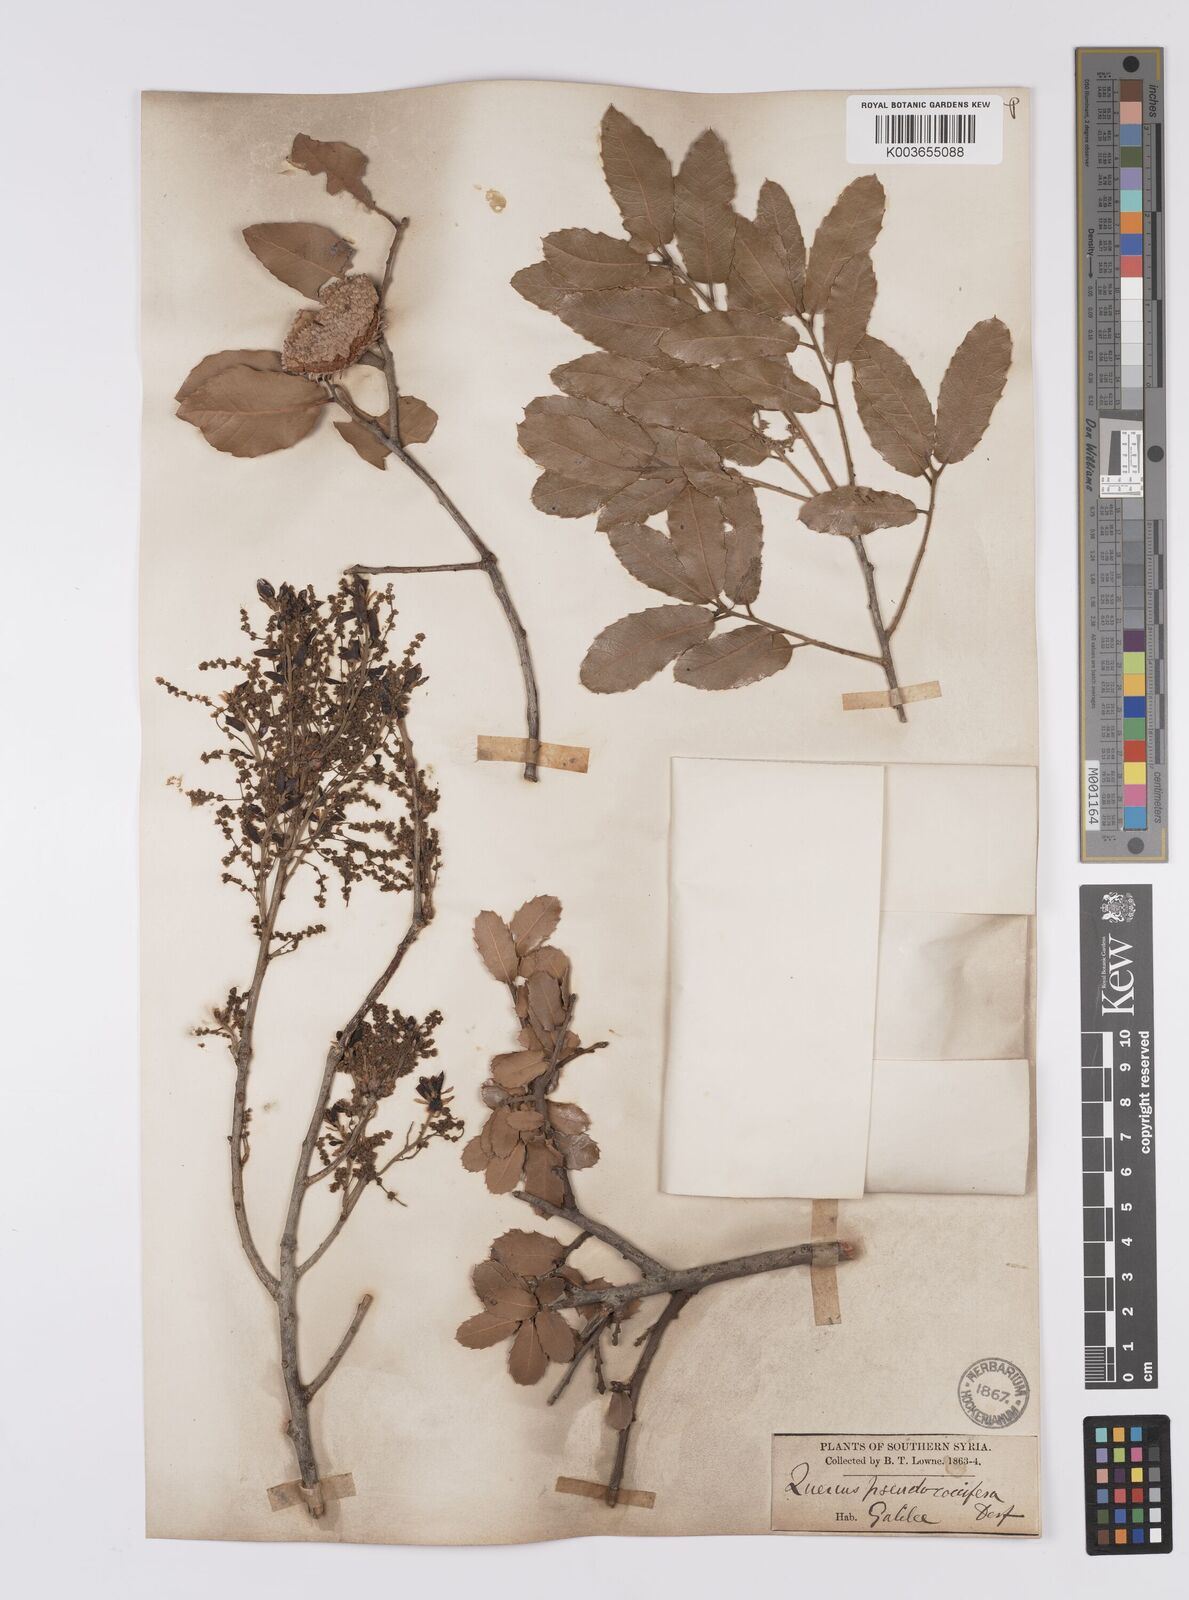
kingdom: Plantae
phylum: Tracheophyta
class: Magnoliopsida
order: Fagales
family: Fagaceae
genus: Quercus
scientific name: Quercus coccifera
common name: Kermes oak
